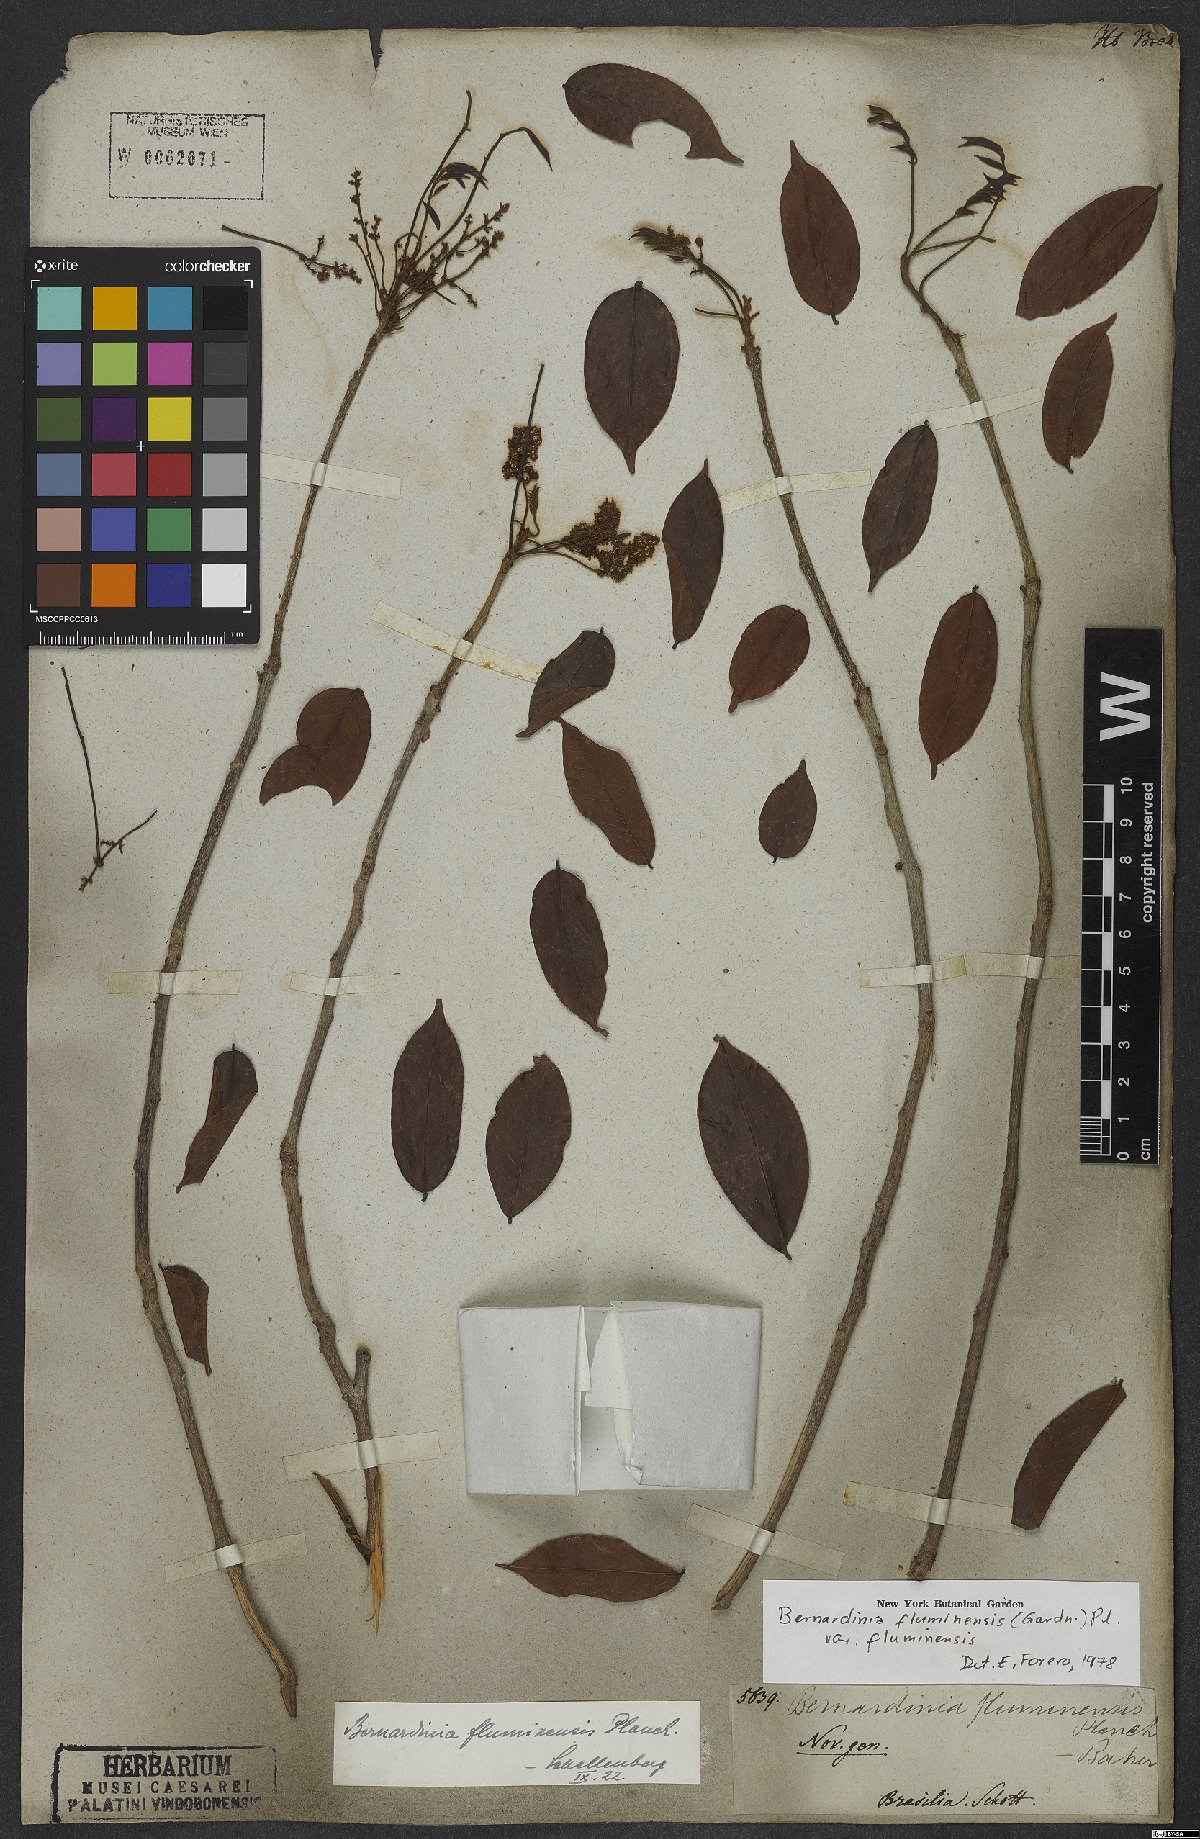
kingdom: Plantae
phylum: Tracheophyta
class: Magnoliopsida
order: Oxalidales
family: Connaraceae
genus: Rourea
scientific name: Rourea fluminensis
